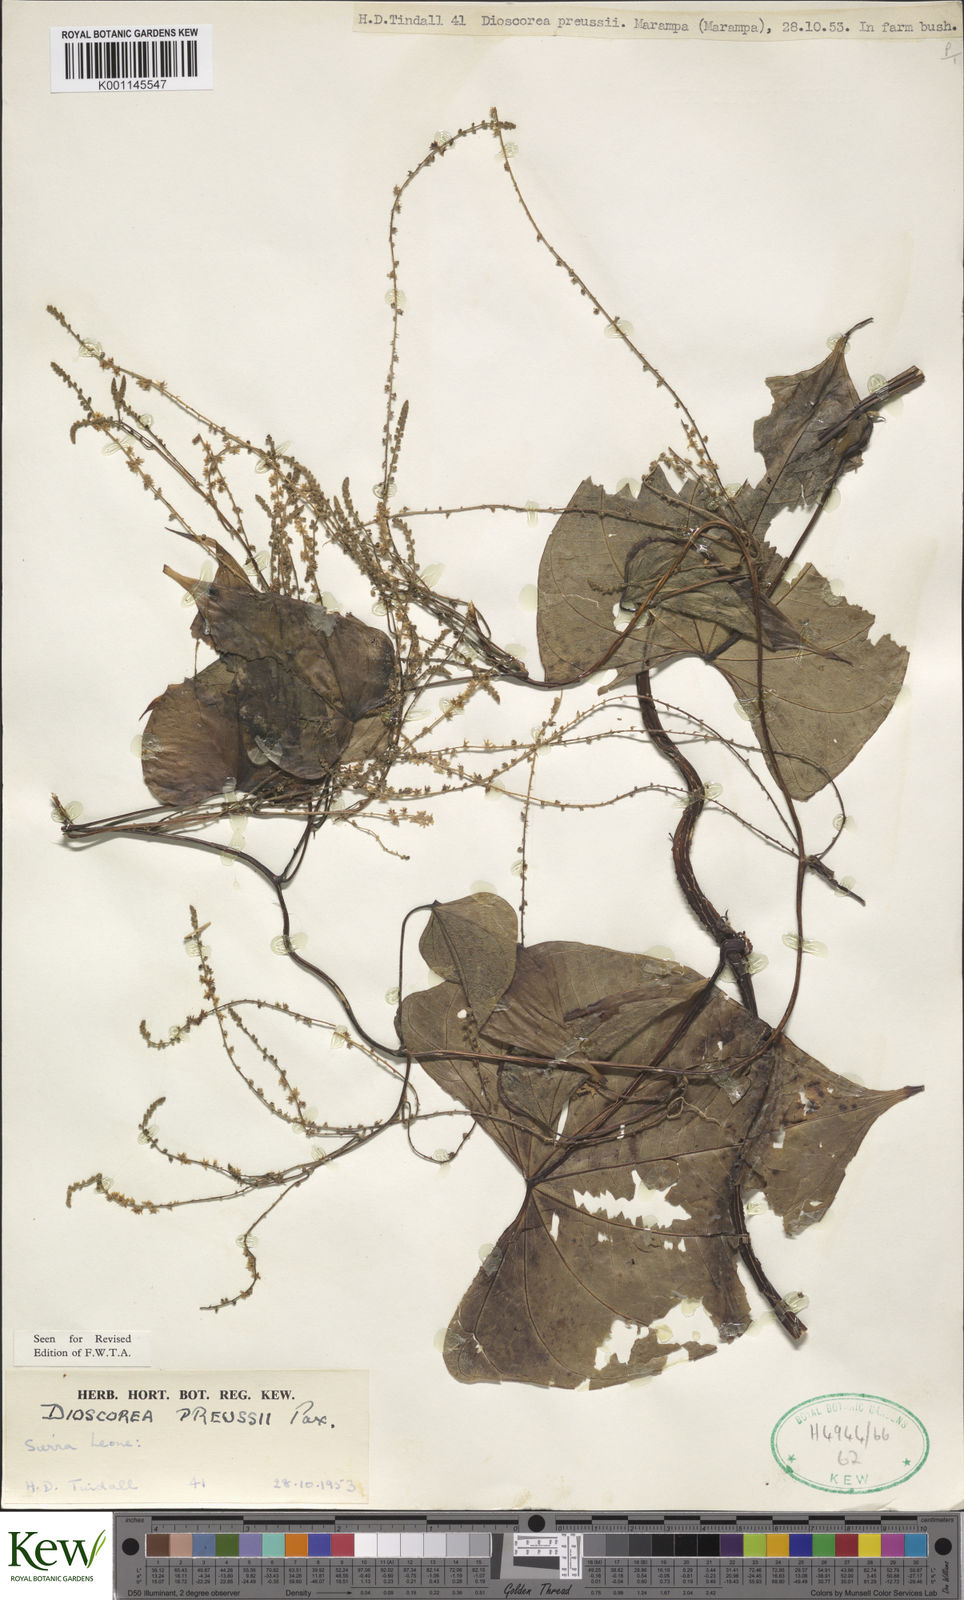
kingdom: Plantae
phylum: Tracheophyta
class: Liliopsida
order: Dioscoreales
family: Dioscoreaceae
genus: Dioscorea
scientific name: Dioscorea preussii
